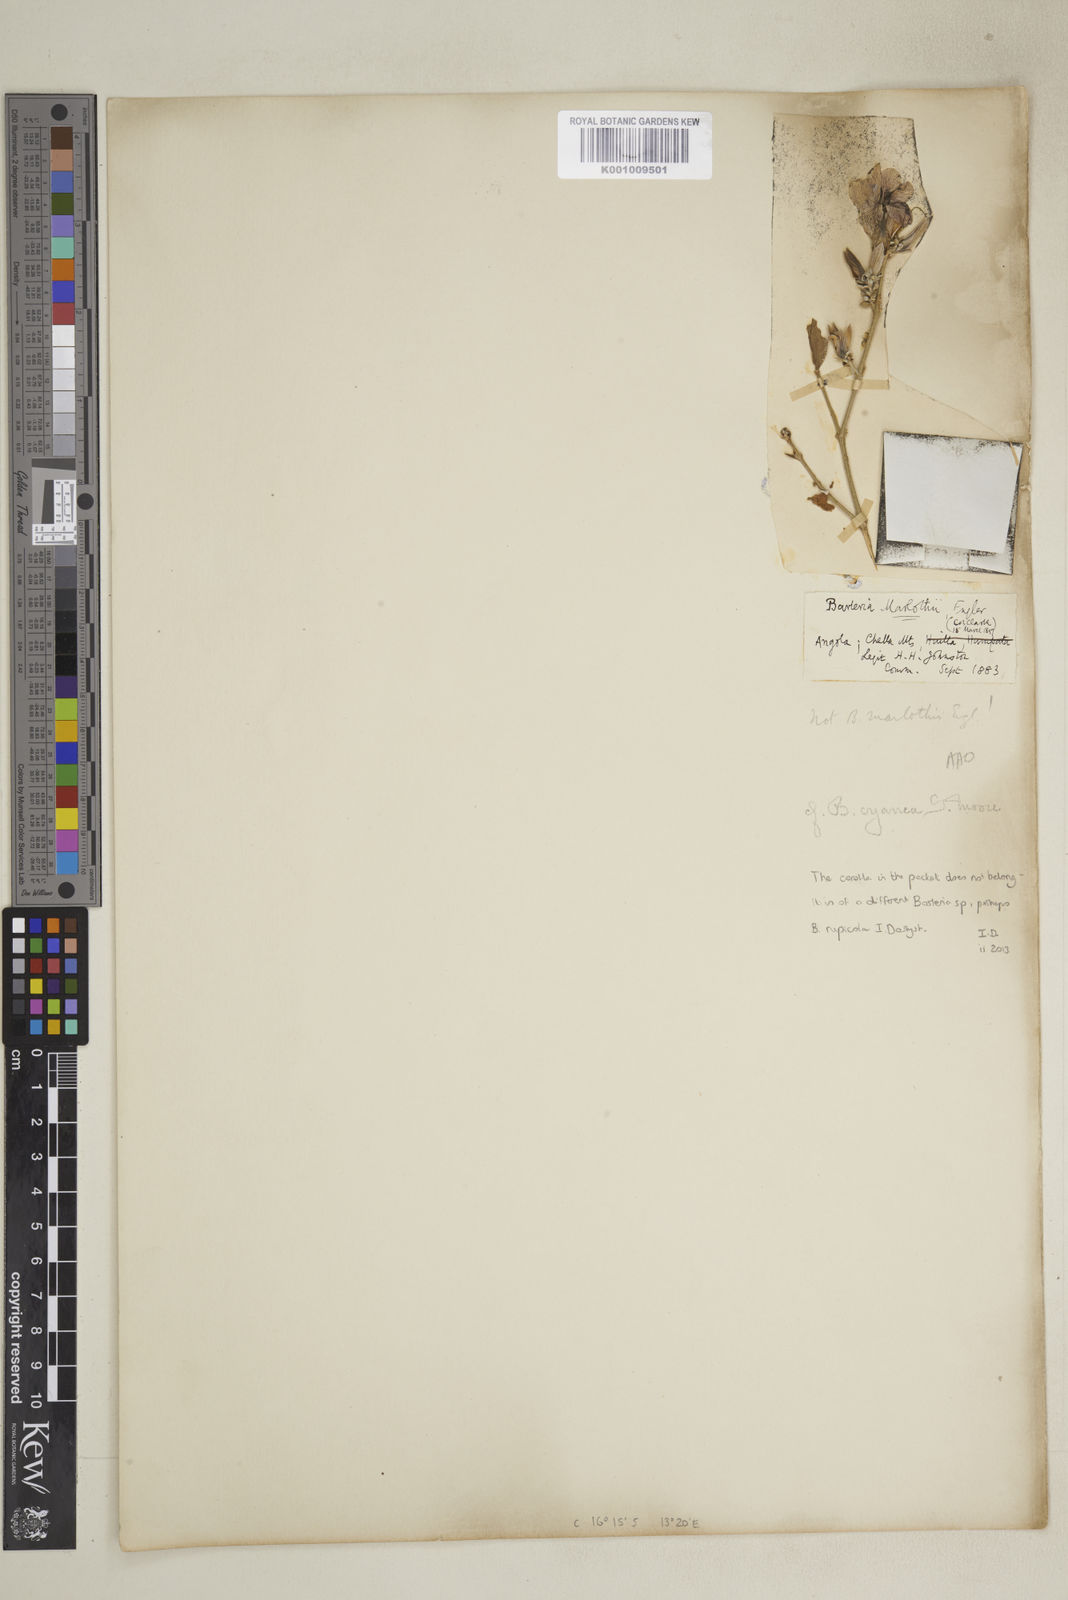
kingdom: Plantae
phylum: Tracheophyta
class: Magnoliopsida
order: Lamiales
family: Acanthaceae
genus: Barleria
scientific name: Barleria cyanea
